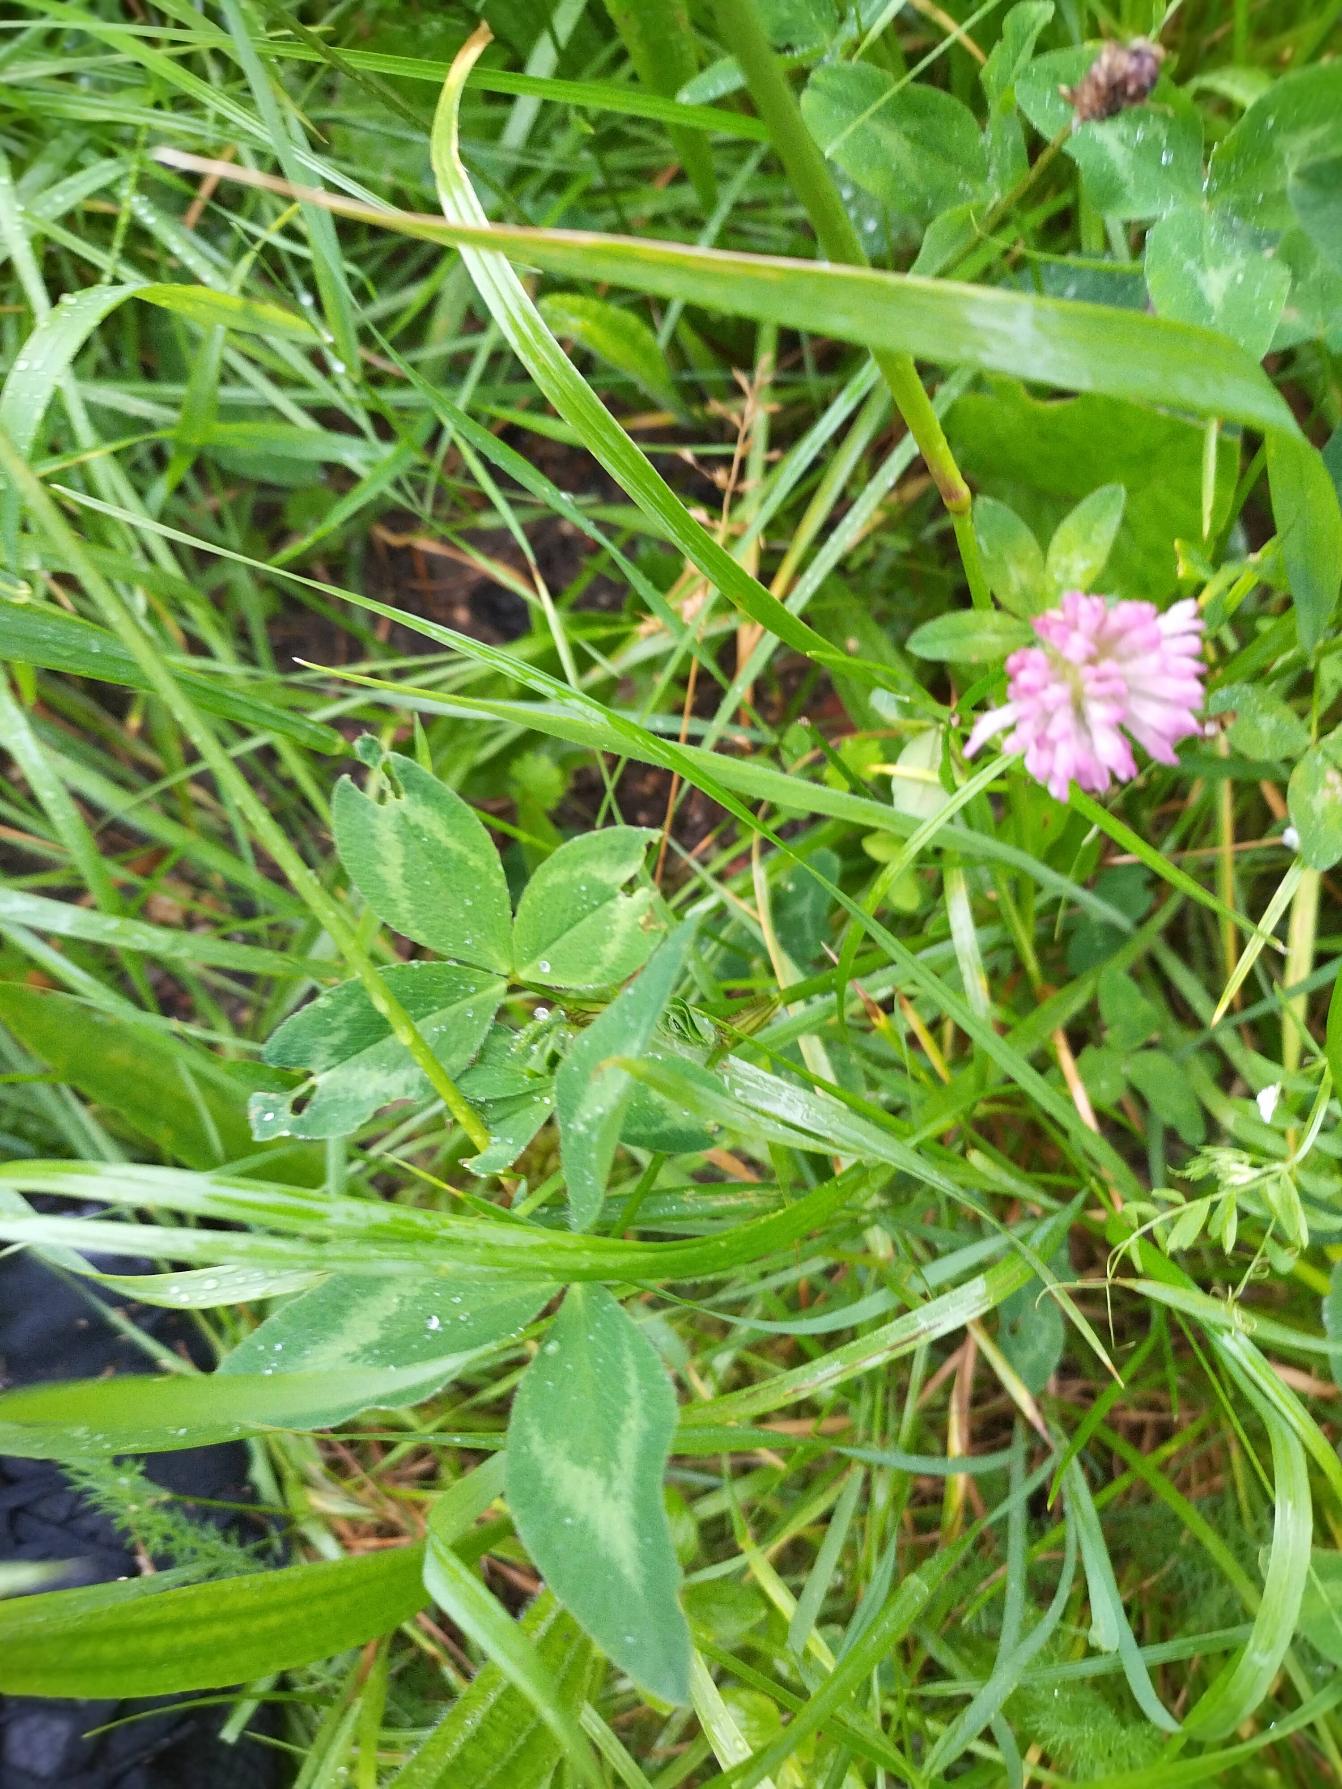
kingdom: Plantae
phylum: Tracheophyta
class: Magnoliopsida
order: Fabales
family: Fabaceae
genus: Trifolium
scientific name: Trifolium pratense
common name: Rød-kløver
